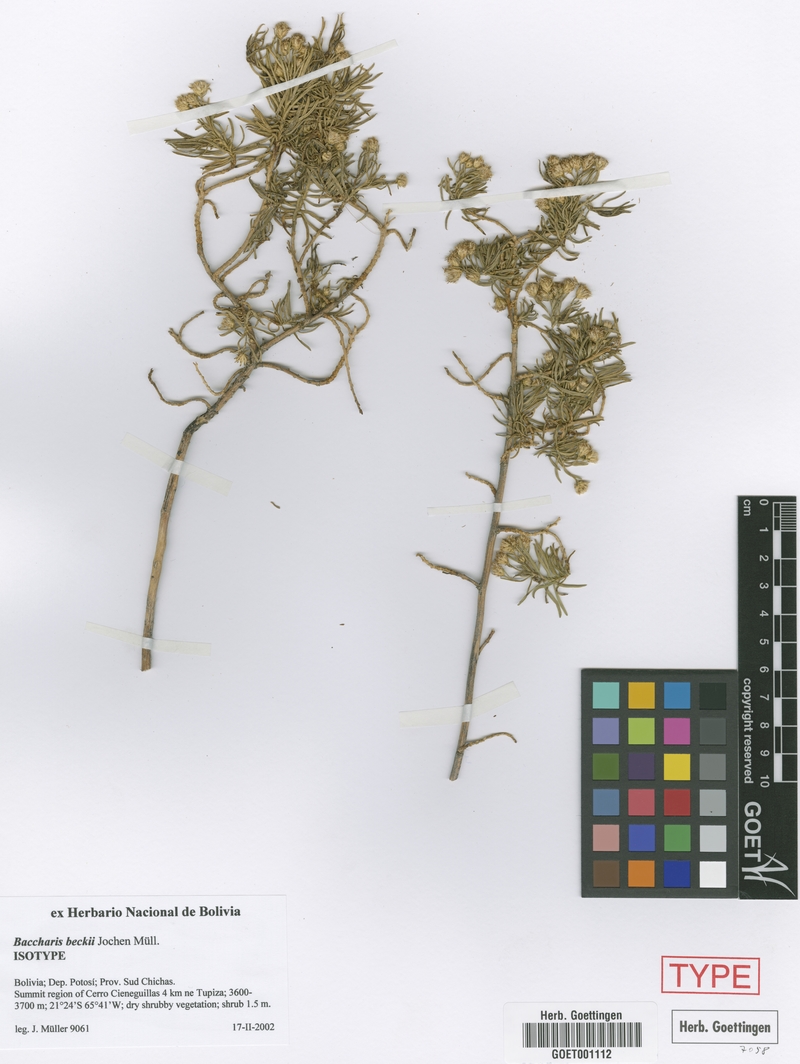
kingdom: Plantae
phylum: Tracheophyta
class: Magnoliopsida
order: Asterales
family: Asteraceae
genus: Baccharis
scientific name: Baccharis beckii
